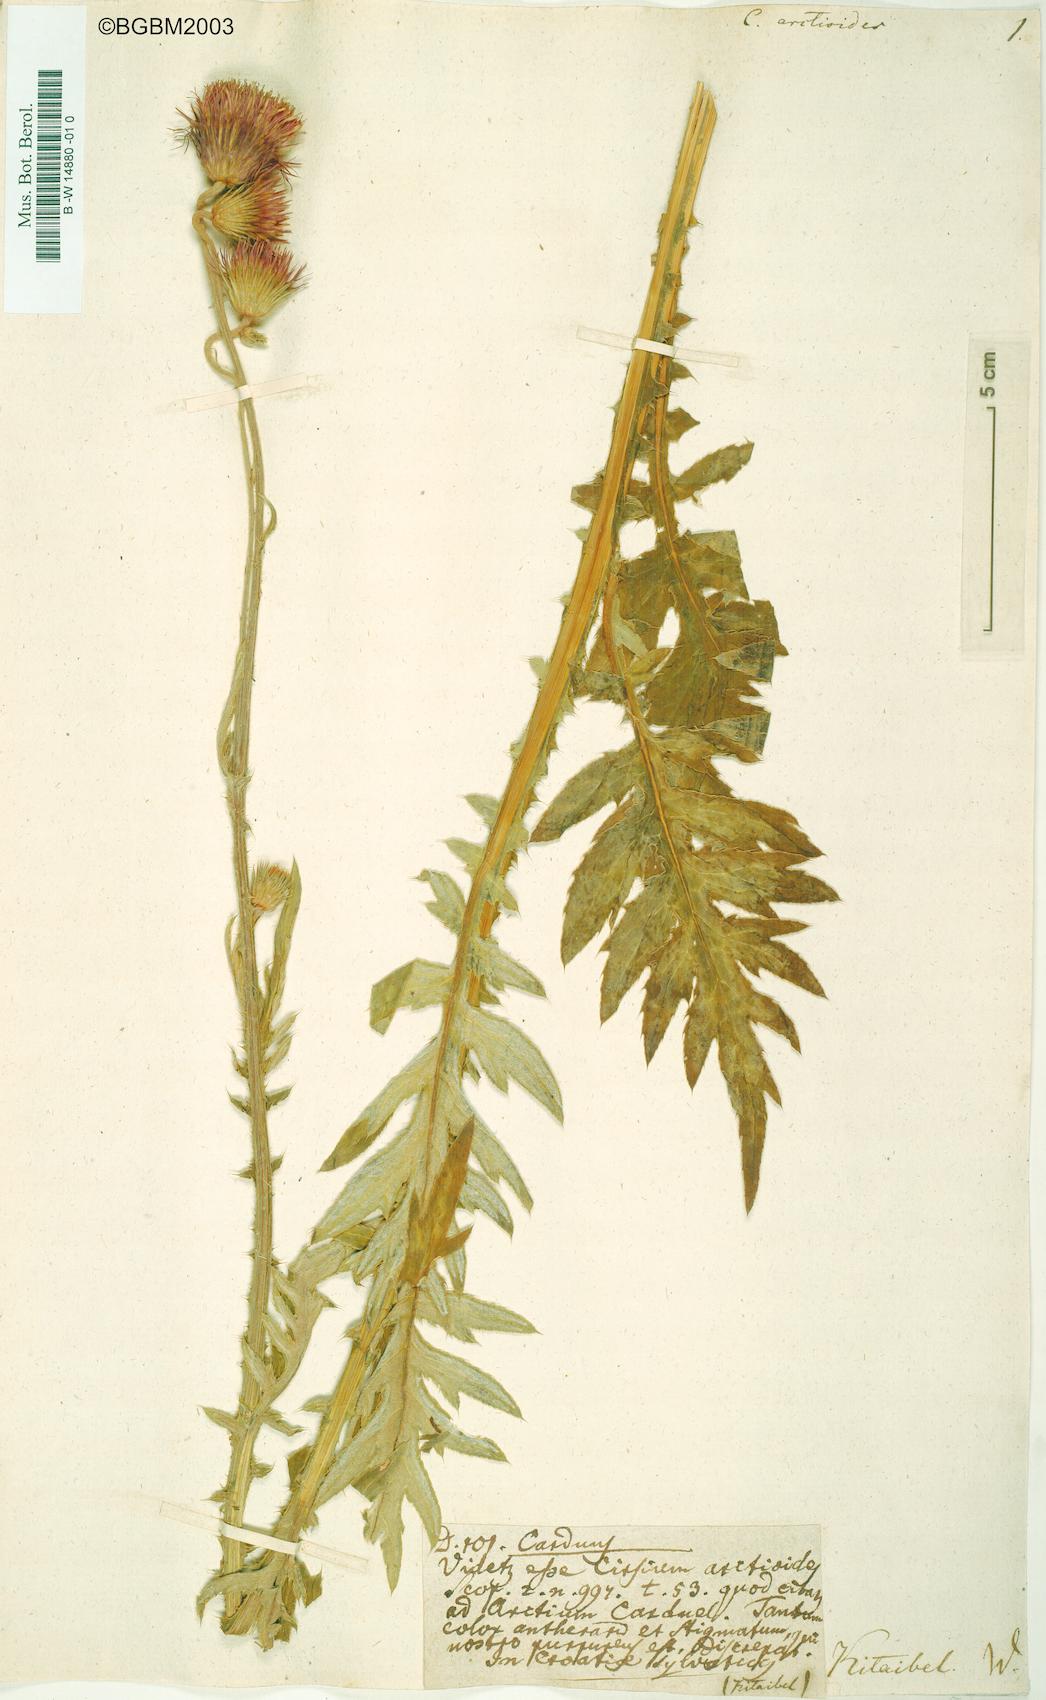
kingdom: Plantae
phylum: Tracheophyta
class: Magnoliopsida
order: Asterales
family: Asteraceae
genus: Carduus
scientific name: Carduus
